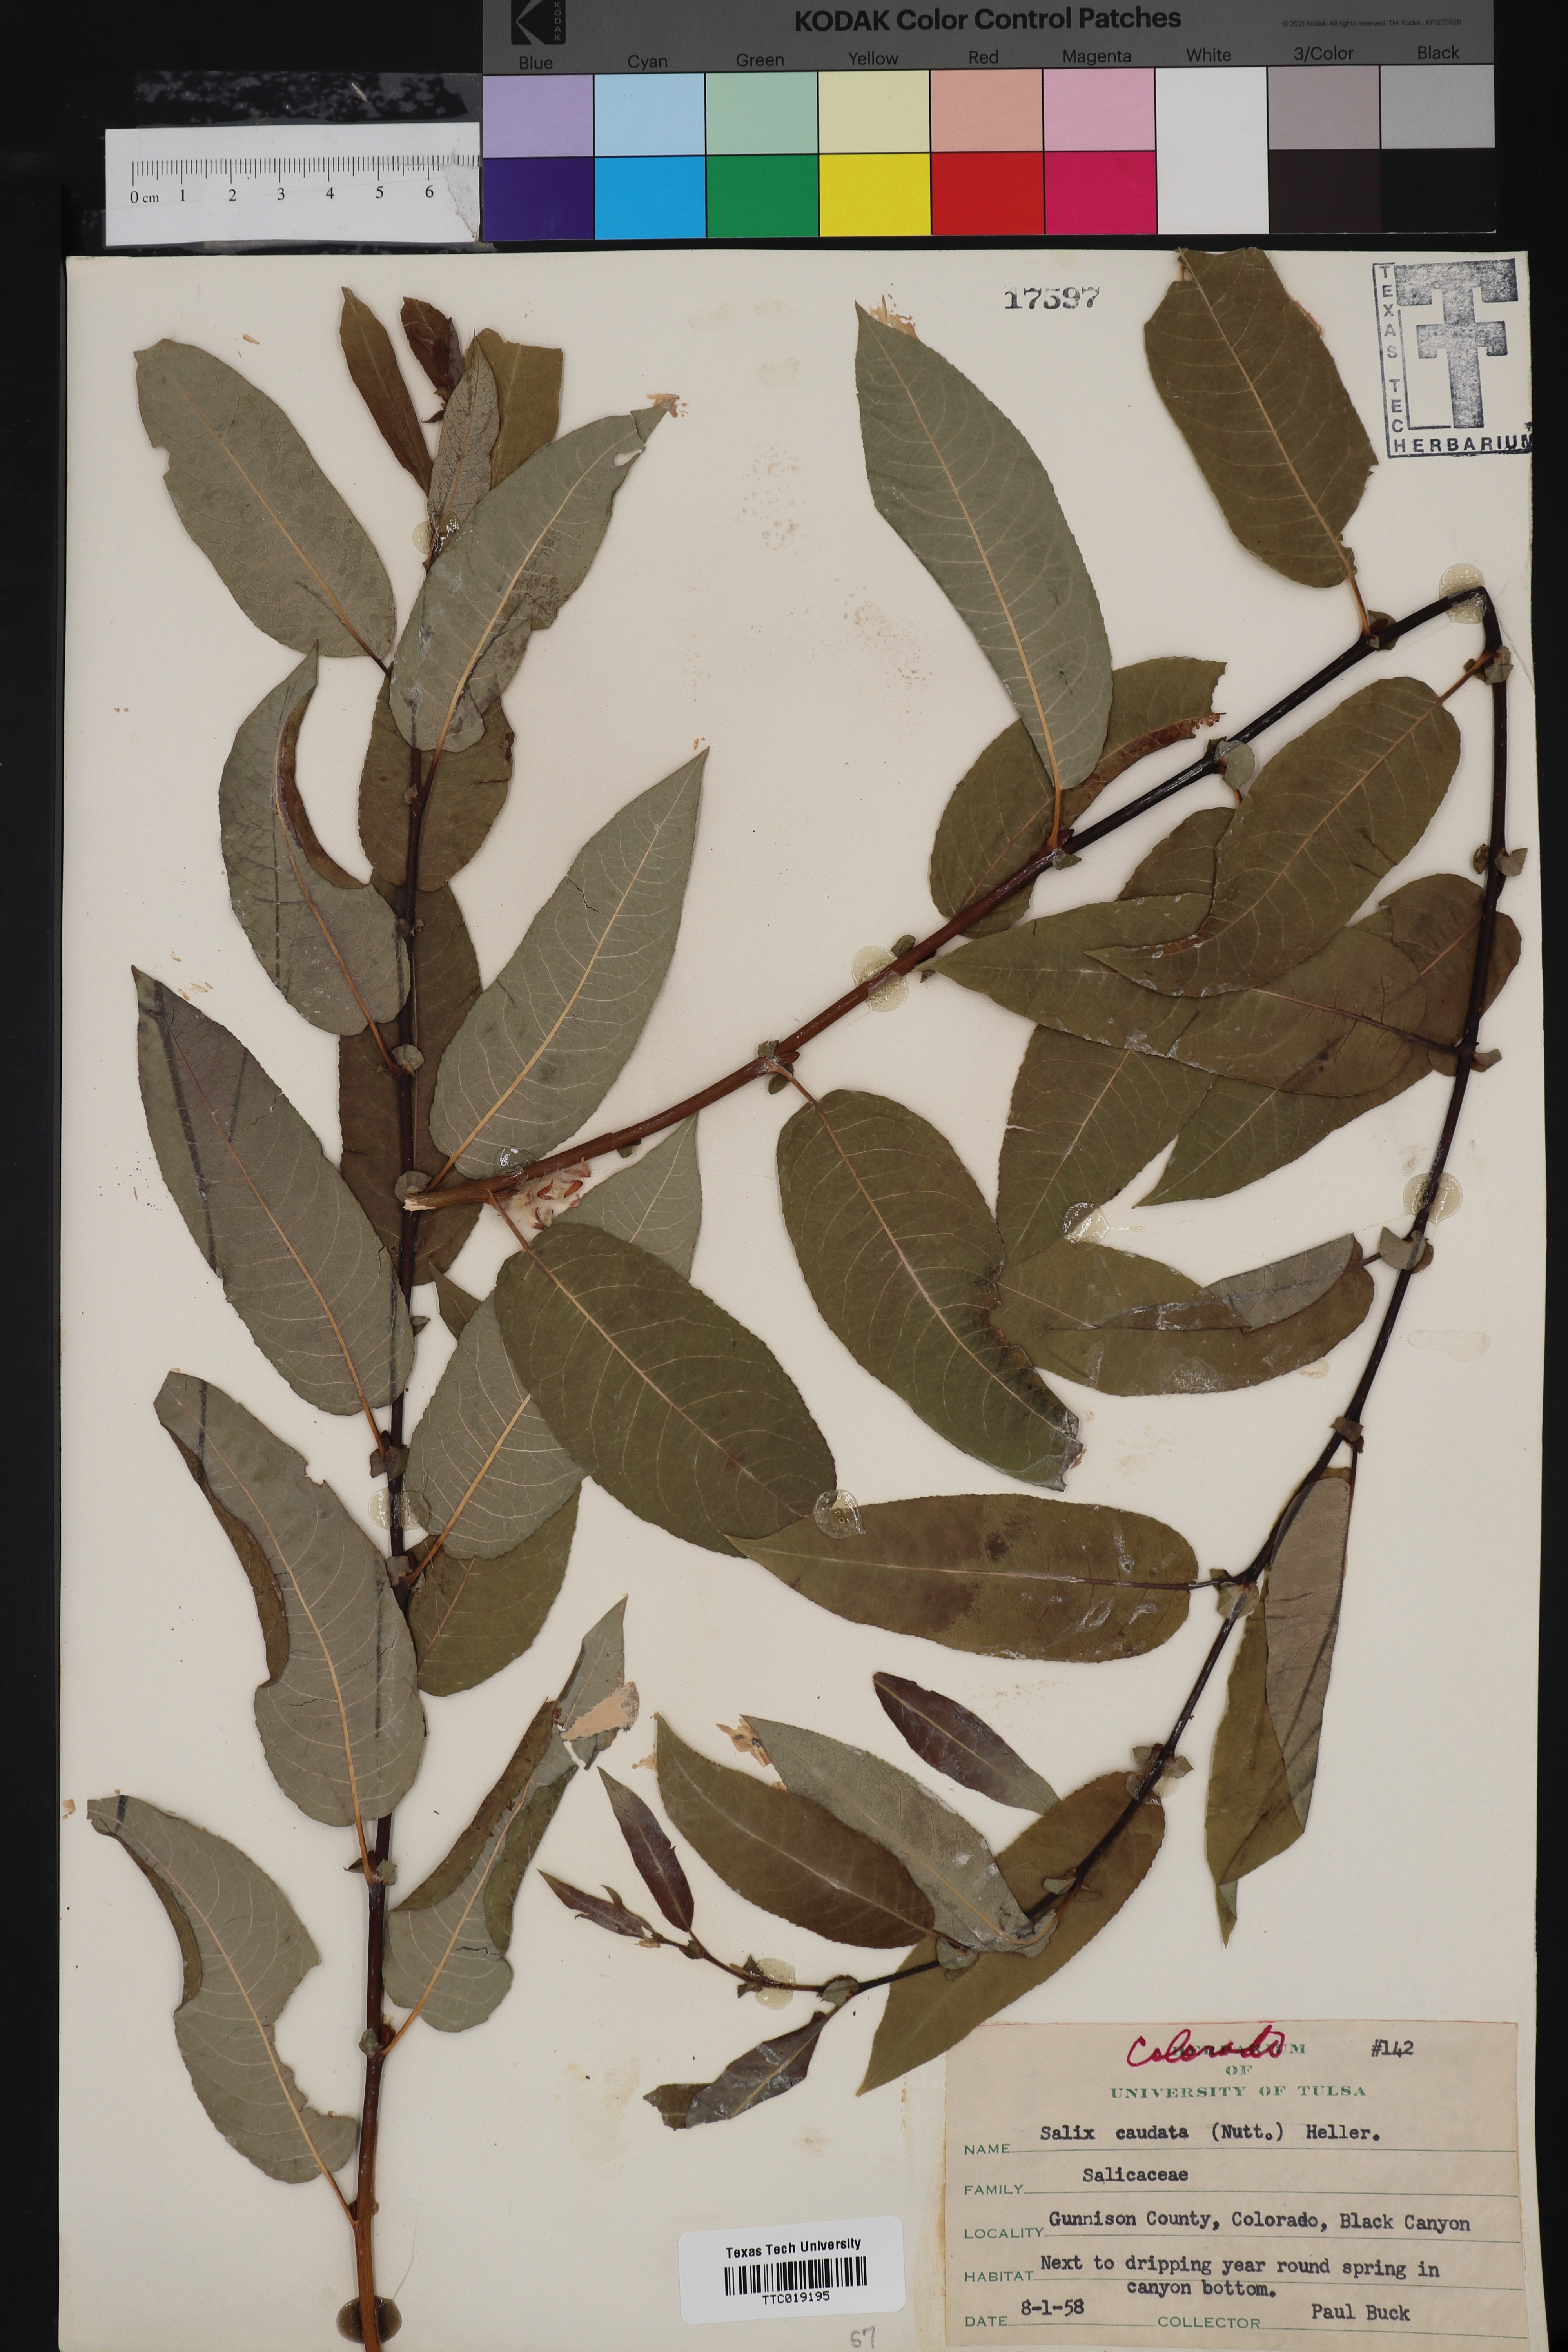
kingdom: Plantae
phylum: Tracheophyta
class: Magnoliopsida
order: Malpighiales
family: Salicaceae
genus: Salix
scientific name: Salix lucida
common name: Shining willow
